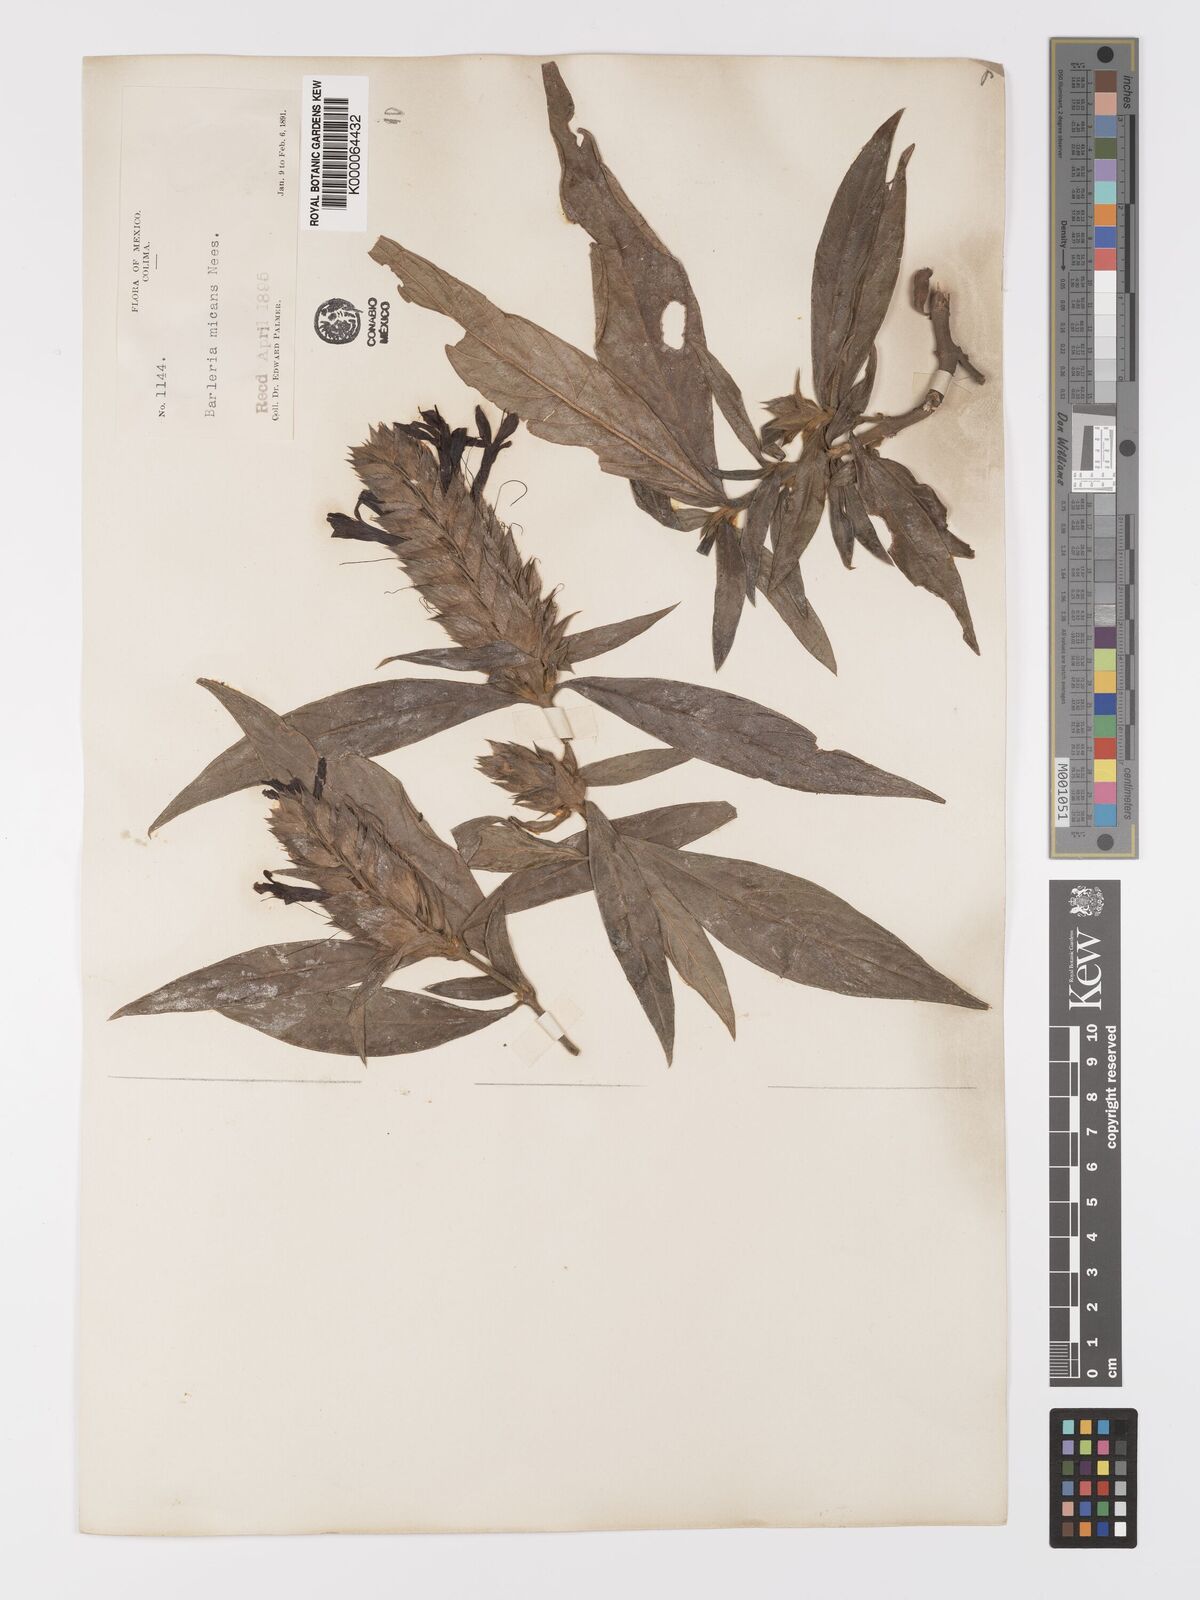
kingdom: Plantae
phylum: Tracheophyta
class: Magnoliopsida
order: Lamiales
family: Acanthaceae
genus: Barleria
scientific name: Barleria oenotheroides
